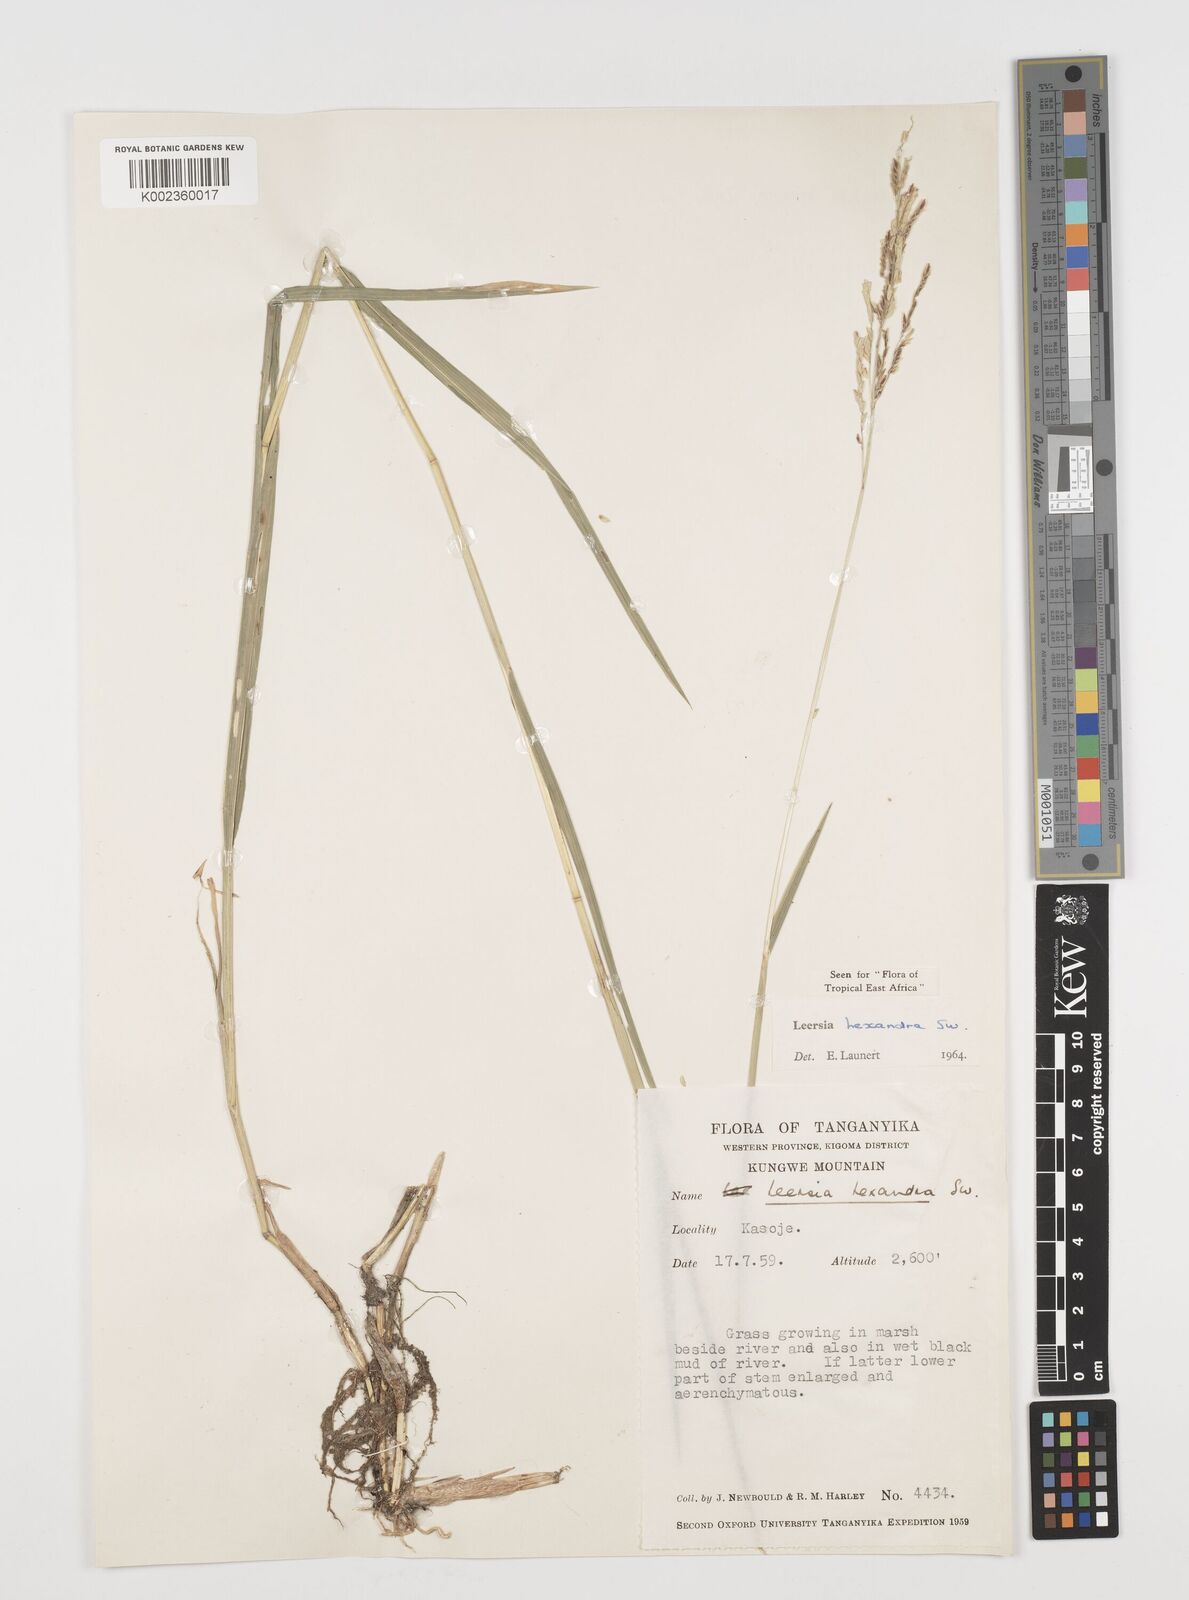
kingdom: Plantae
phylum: Tracheophyta
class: Liliopsida
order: Poales
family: Poaceae
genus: Leersia
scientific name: Leersia hexandra
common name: Southern cut grass
